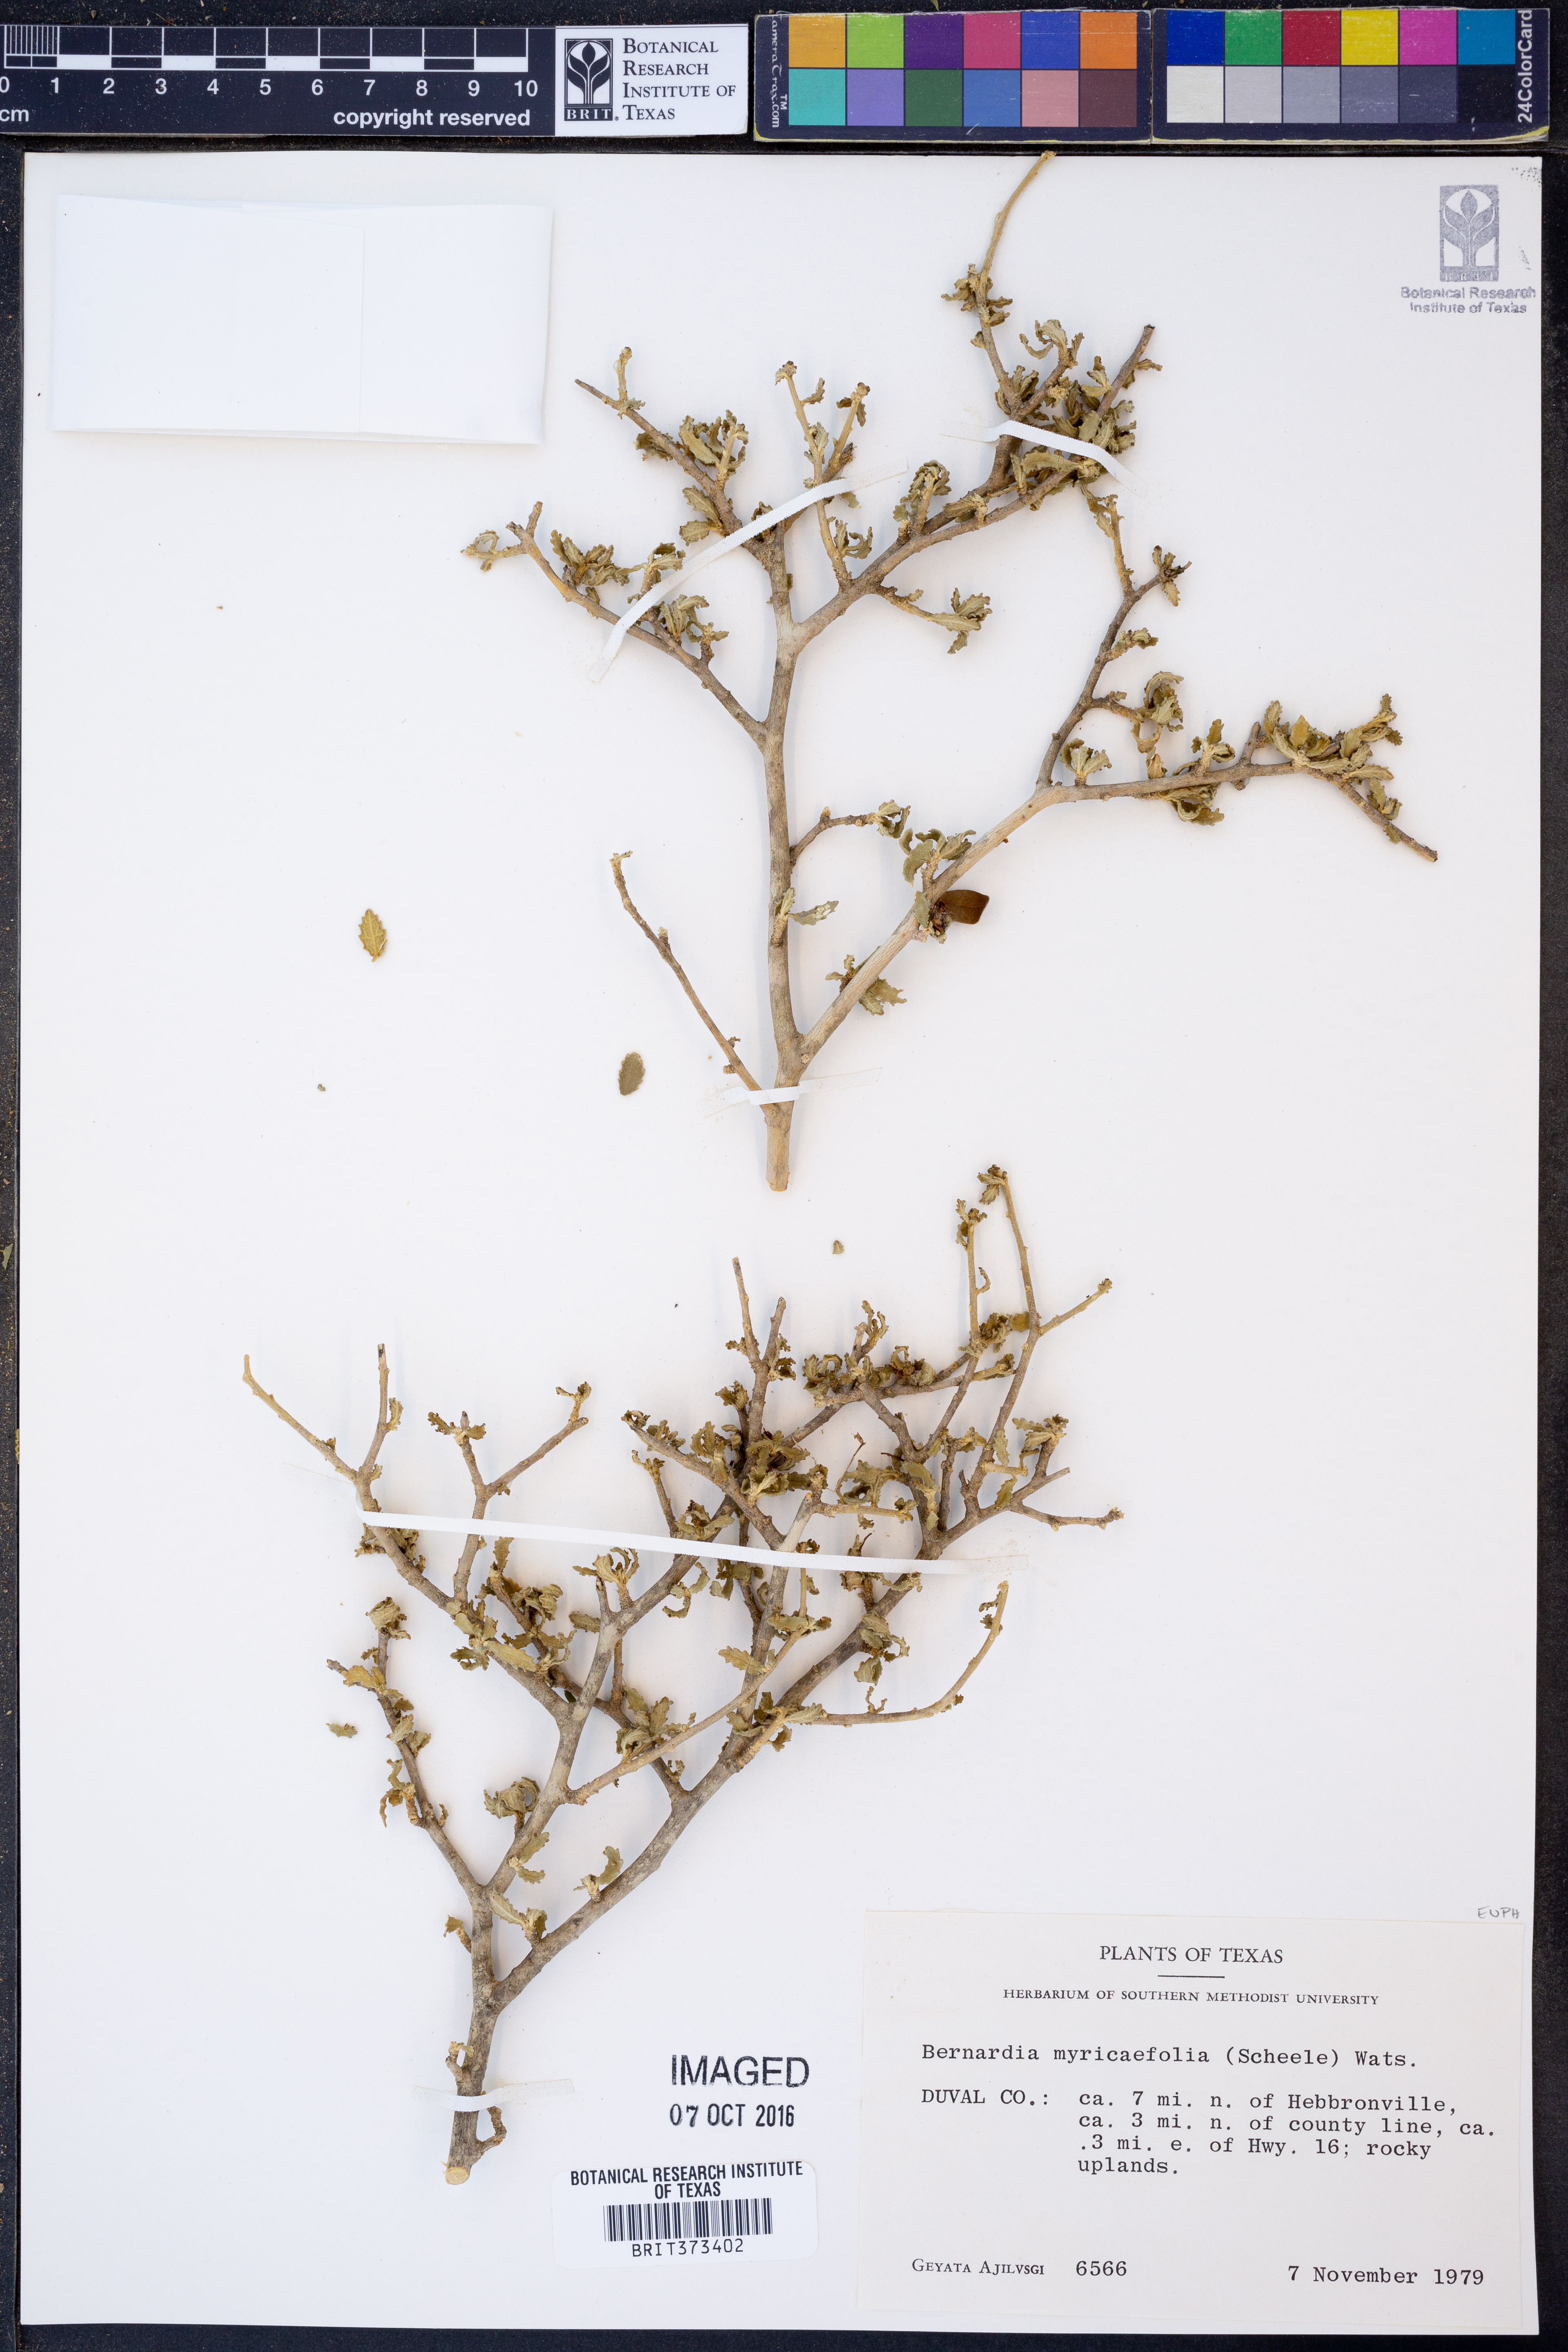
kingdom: Plantae
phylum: Tracheophyta
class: Magnoliopsida
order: Malpighiales
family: Euphorbiaceae
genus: Bernardia
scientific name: Bernardia myricifolia
